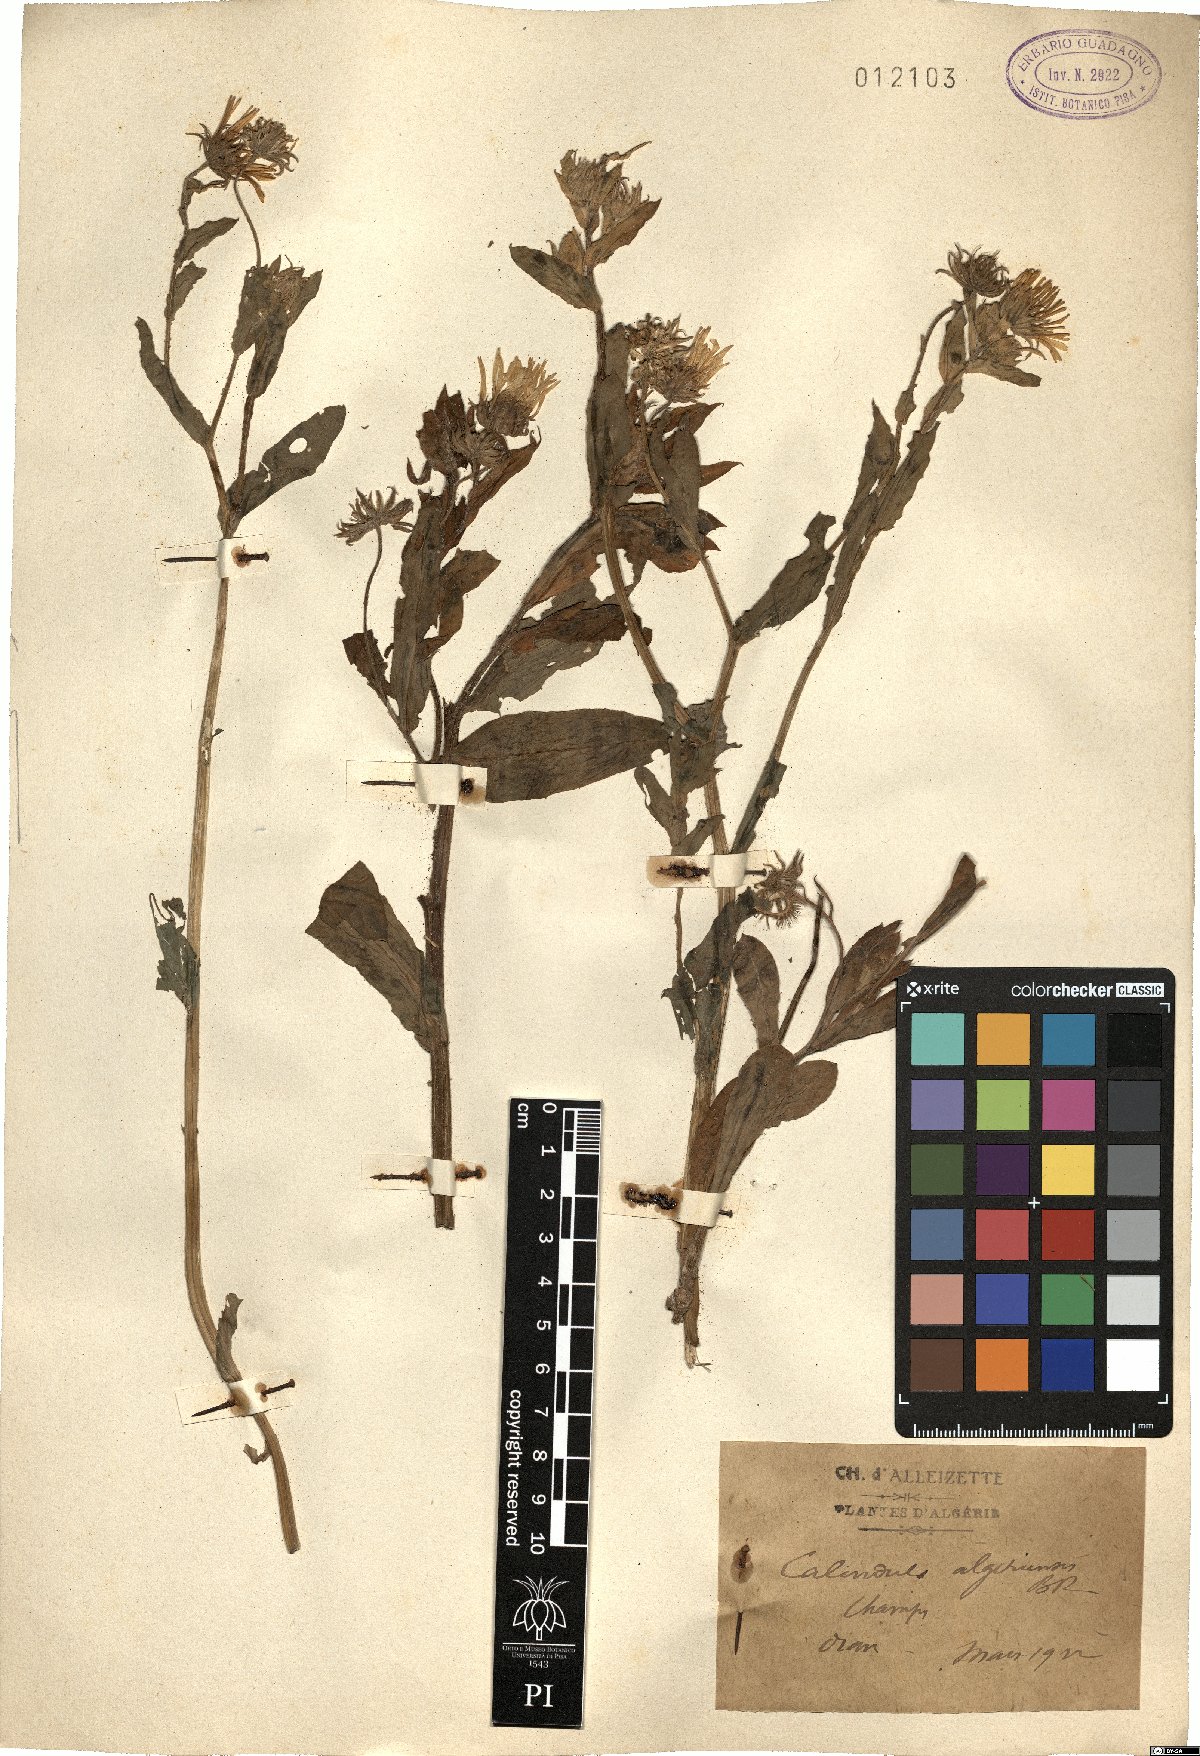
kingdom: Plantae
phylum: Tracheophyta
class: Magnoliopsida
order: Asterales
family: Asteraceae
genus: Calendula
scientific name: Calendula arvensis
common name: Field marigold
